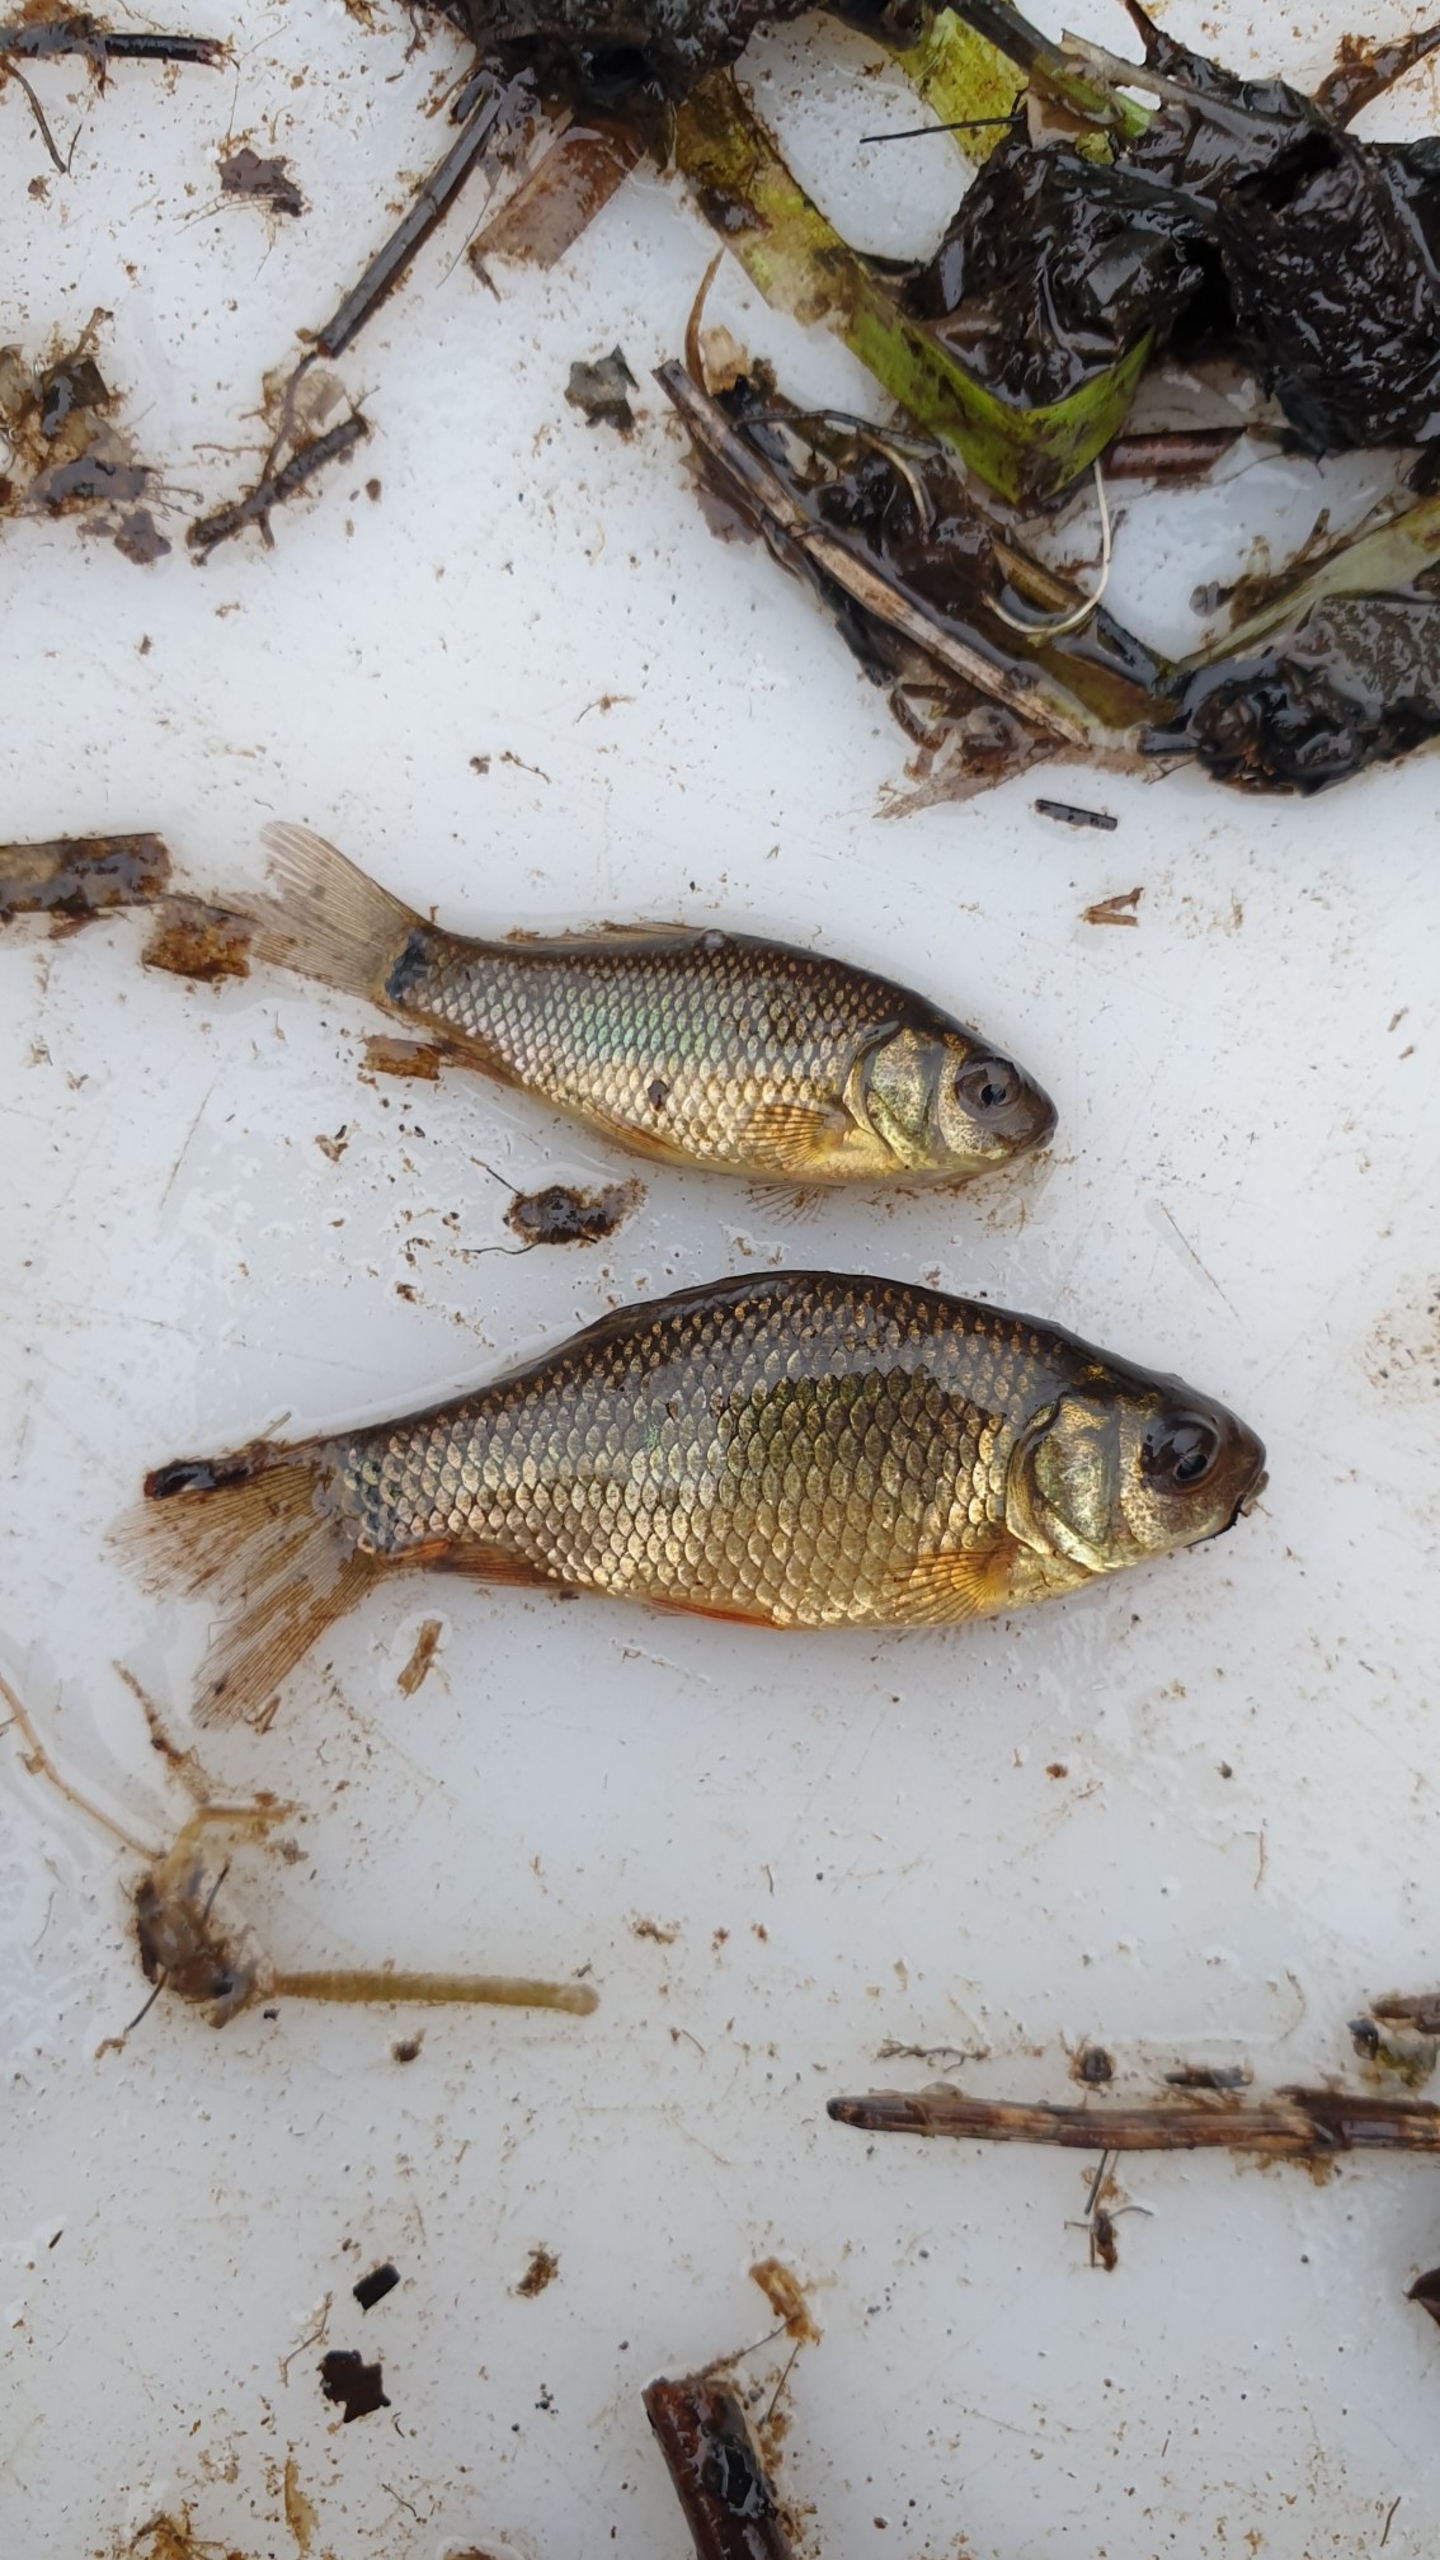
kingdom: Animalia
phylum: Chordata
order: Cypriniformes
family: Cyprinidae
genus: Carassius
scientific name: Carassius carassius
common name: Karusse
